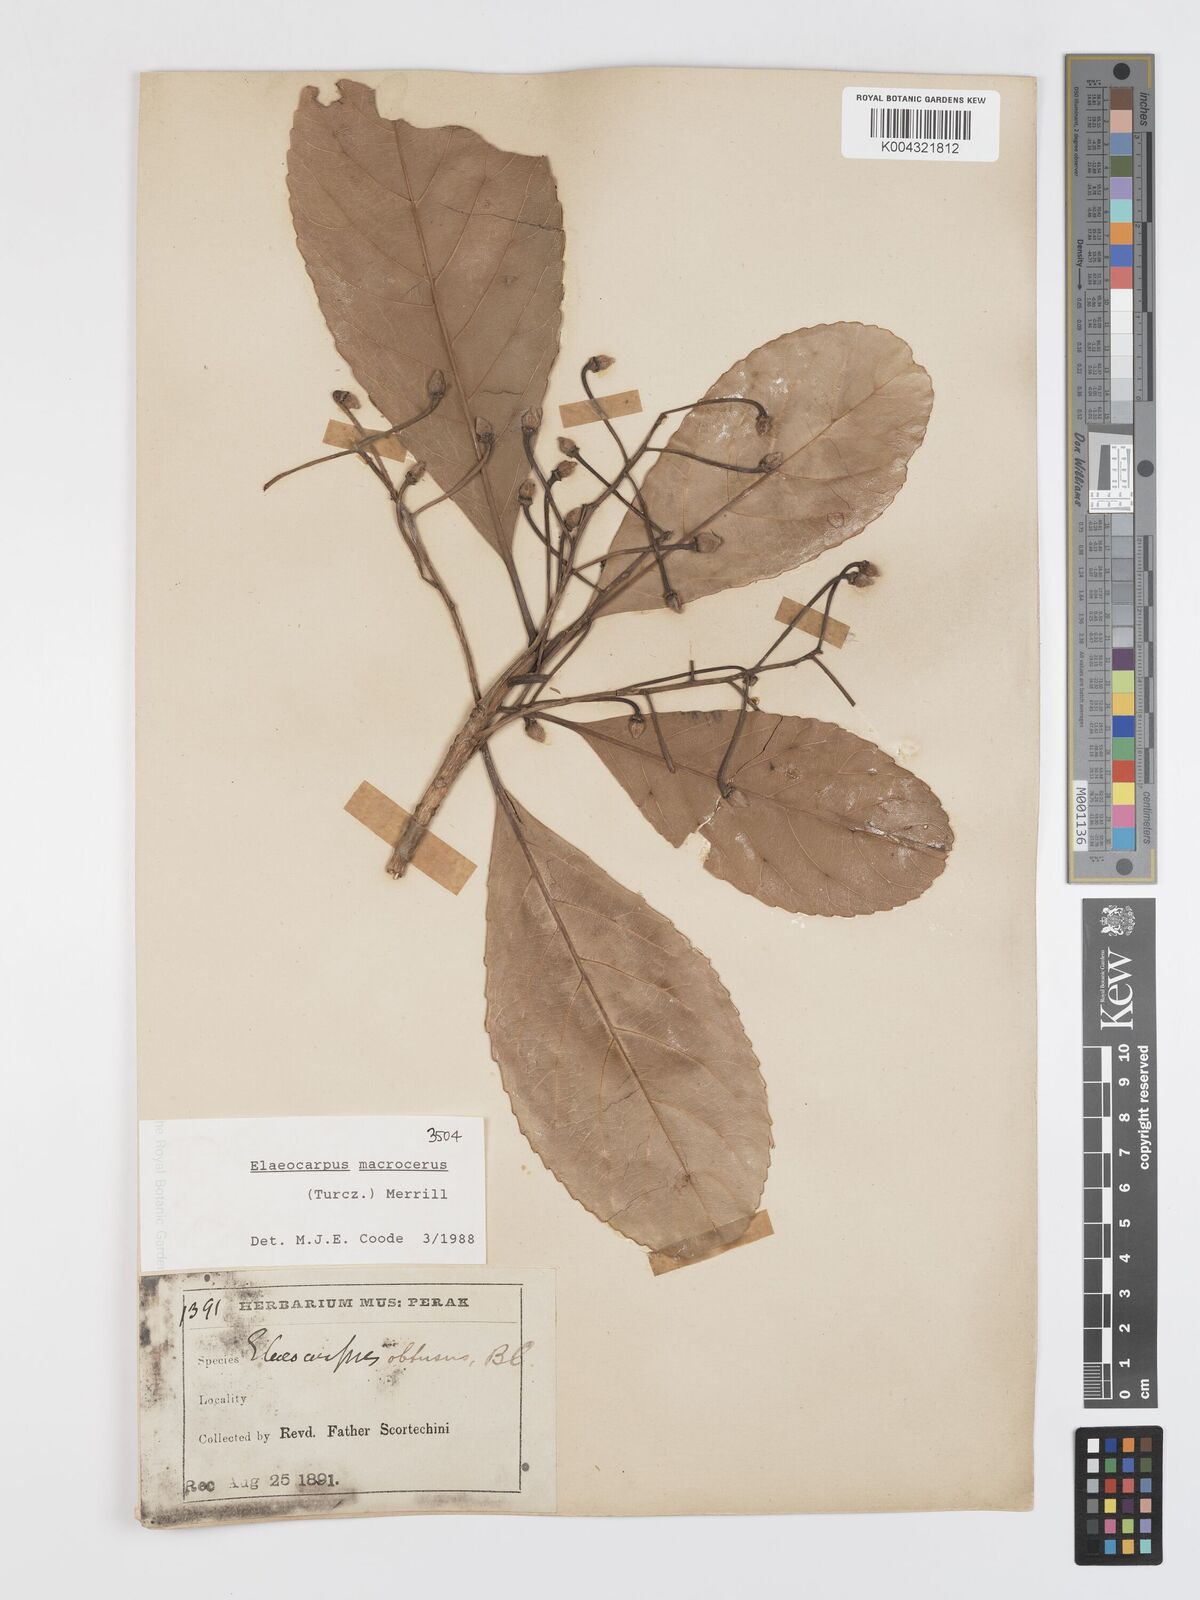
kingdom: Plantae
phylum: Tracheophyta
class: Magnoliopsida
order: Oxalidales
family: Elaeocarpaceae
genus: Elaeocarpus
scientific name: Elaeocarpus
